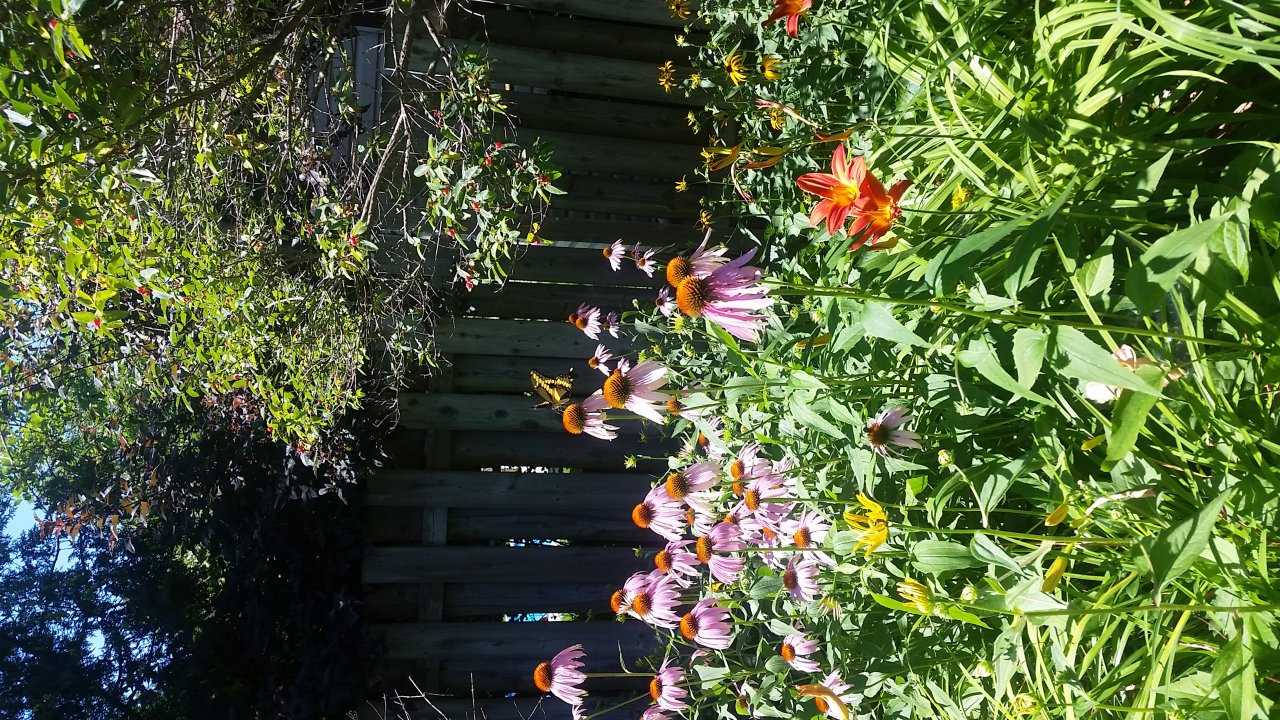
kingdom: Animalia
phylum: Arthropoda
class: Insecta
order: Lepidoptera
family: Papilionidae
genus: Papilio
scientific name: Papilio cresphontes
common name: Eastern Giant Swallowtail
